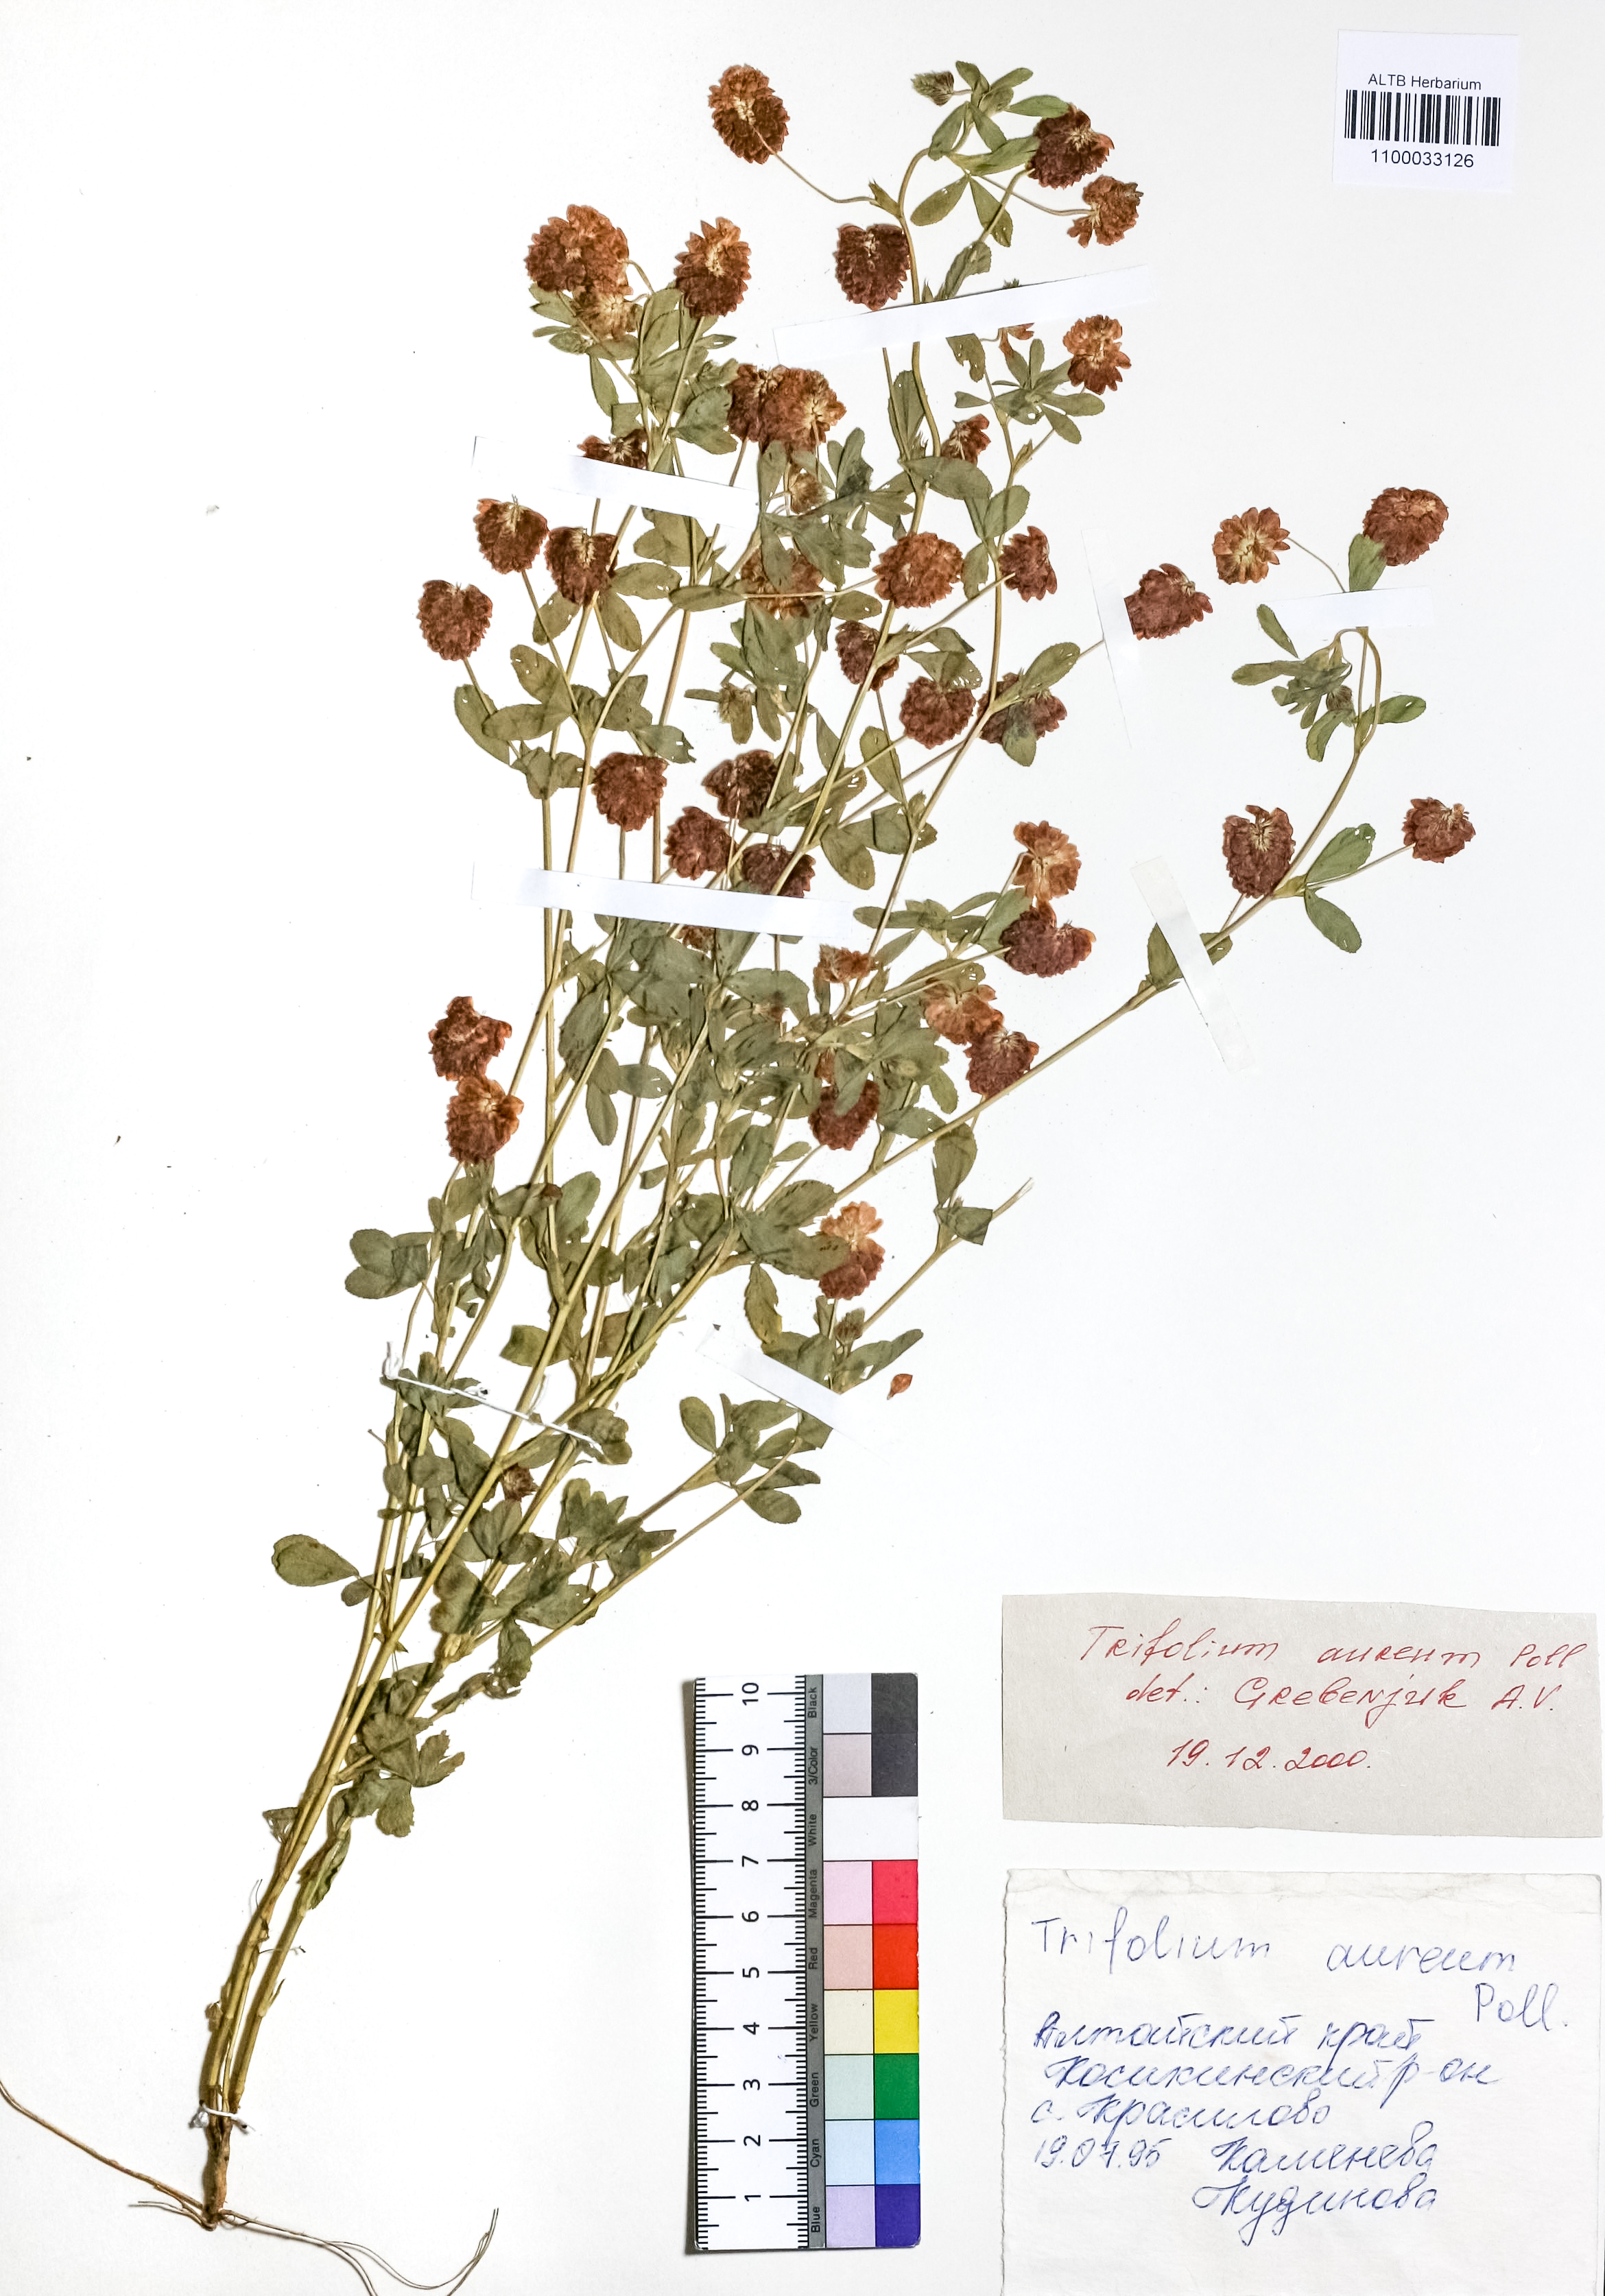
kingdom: Plantae
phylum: Tracheophyta
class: Magnoliopsida
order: Fabales
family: Fabaceae
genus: Trifolium
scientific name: Trifolium aureum
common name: Golden clover
